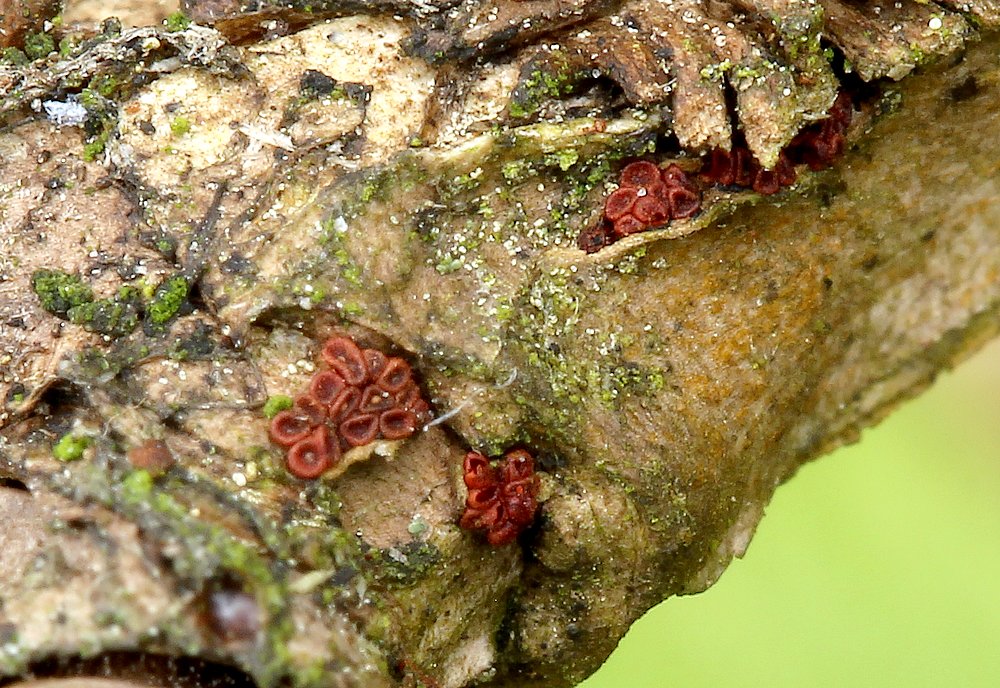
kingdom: Fungi
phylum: Ascomycota
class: Sordariomycetes
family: Thyridiaceae
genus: Thyronectria
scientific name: Thyronectria sinopica
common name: vedbend-cinnobersvamp
